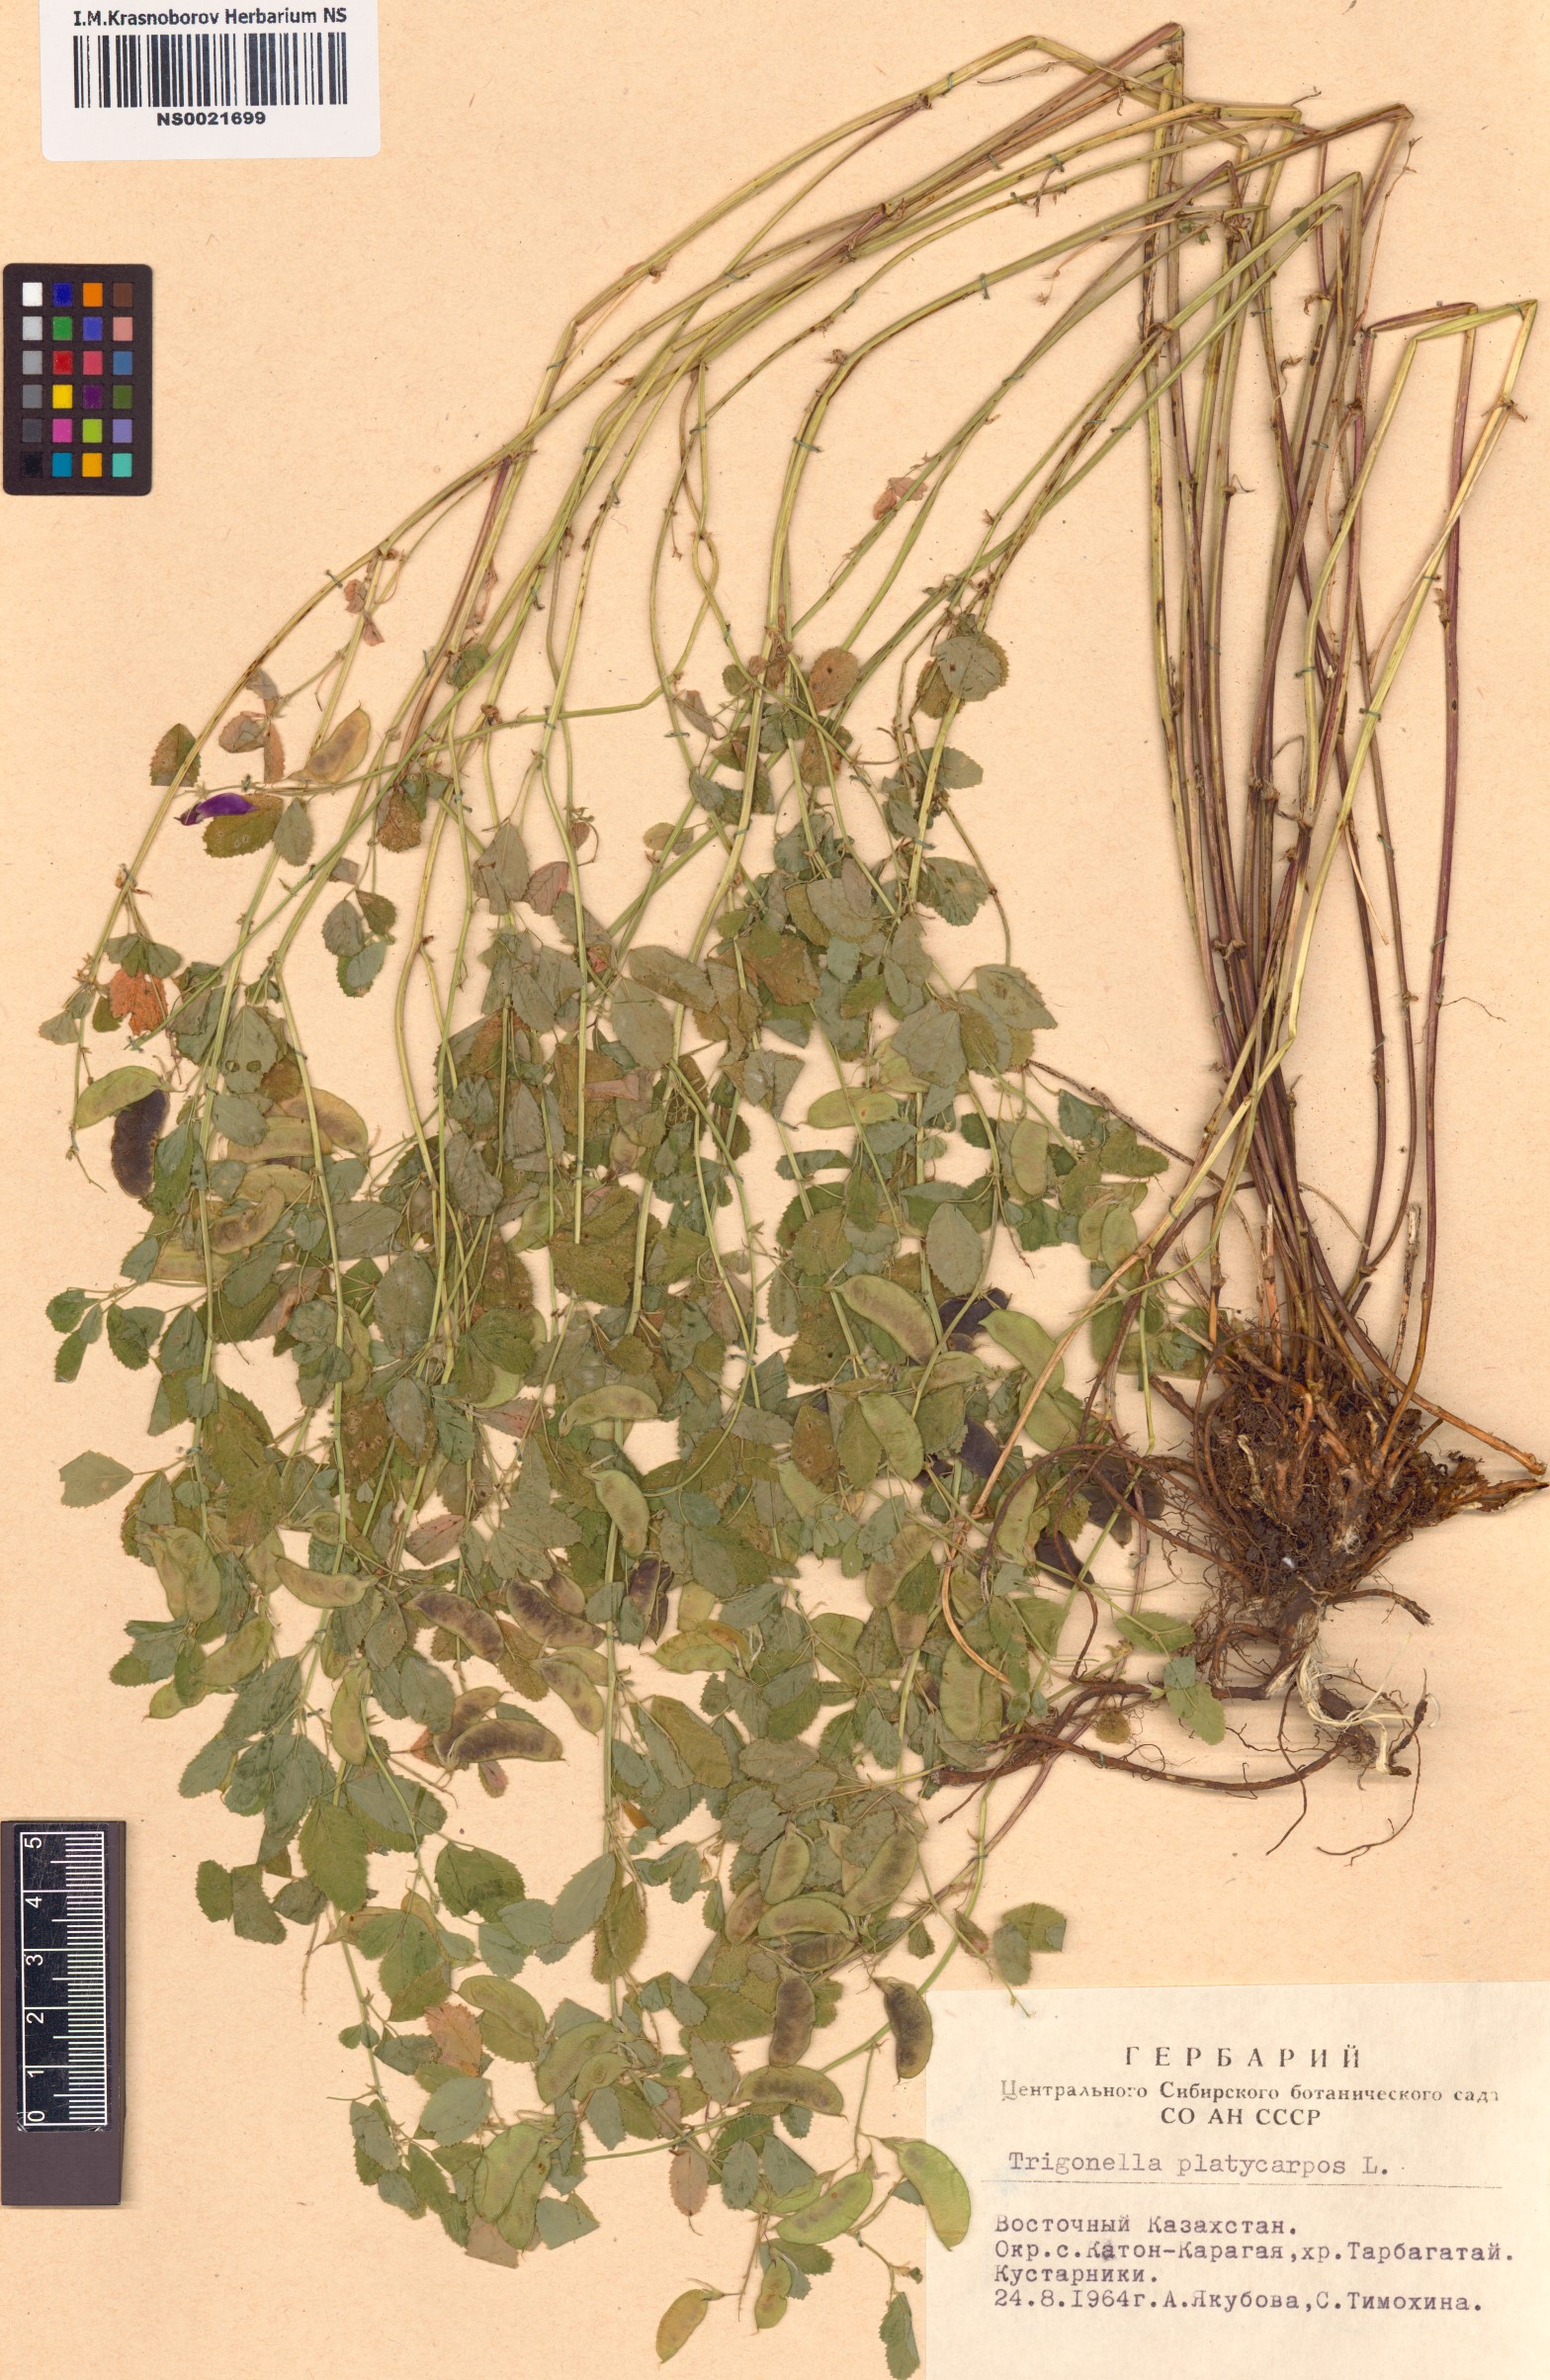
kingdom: Plantae
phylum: Tracheophyta
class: Magnoliopsida
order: Fabales
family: Fabaceae
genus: Medicago
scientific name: Medicago platycarpos
